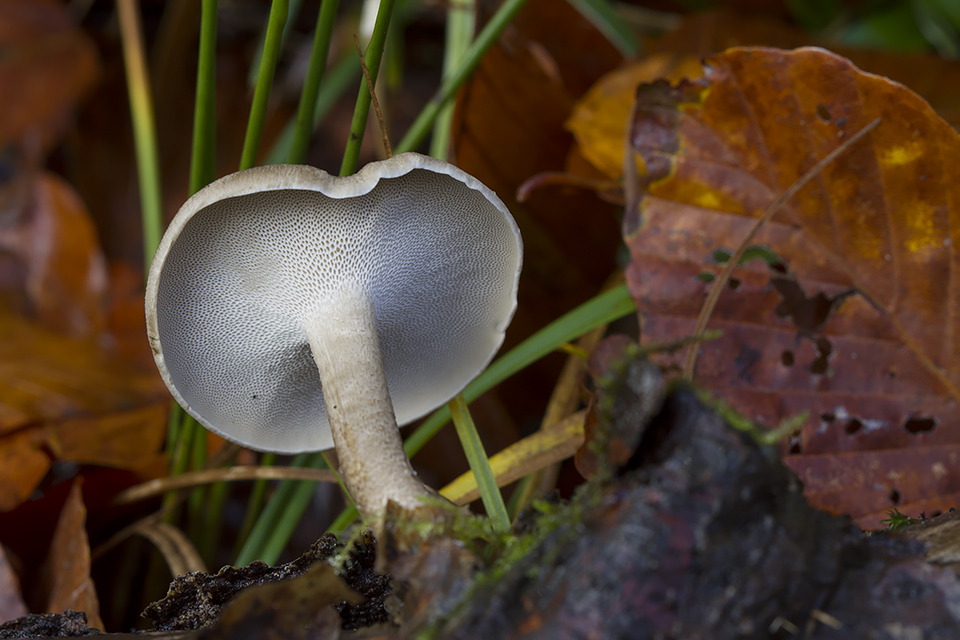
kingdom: Fungi
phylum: Basidiomycota
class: Agaricomycetes
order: Polyporales
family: Polyporaceae
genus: Lentinus
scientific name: Lentinus brumalis
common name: vinter-stilkporesvamp
